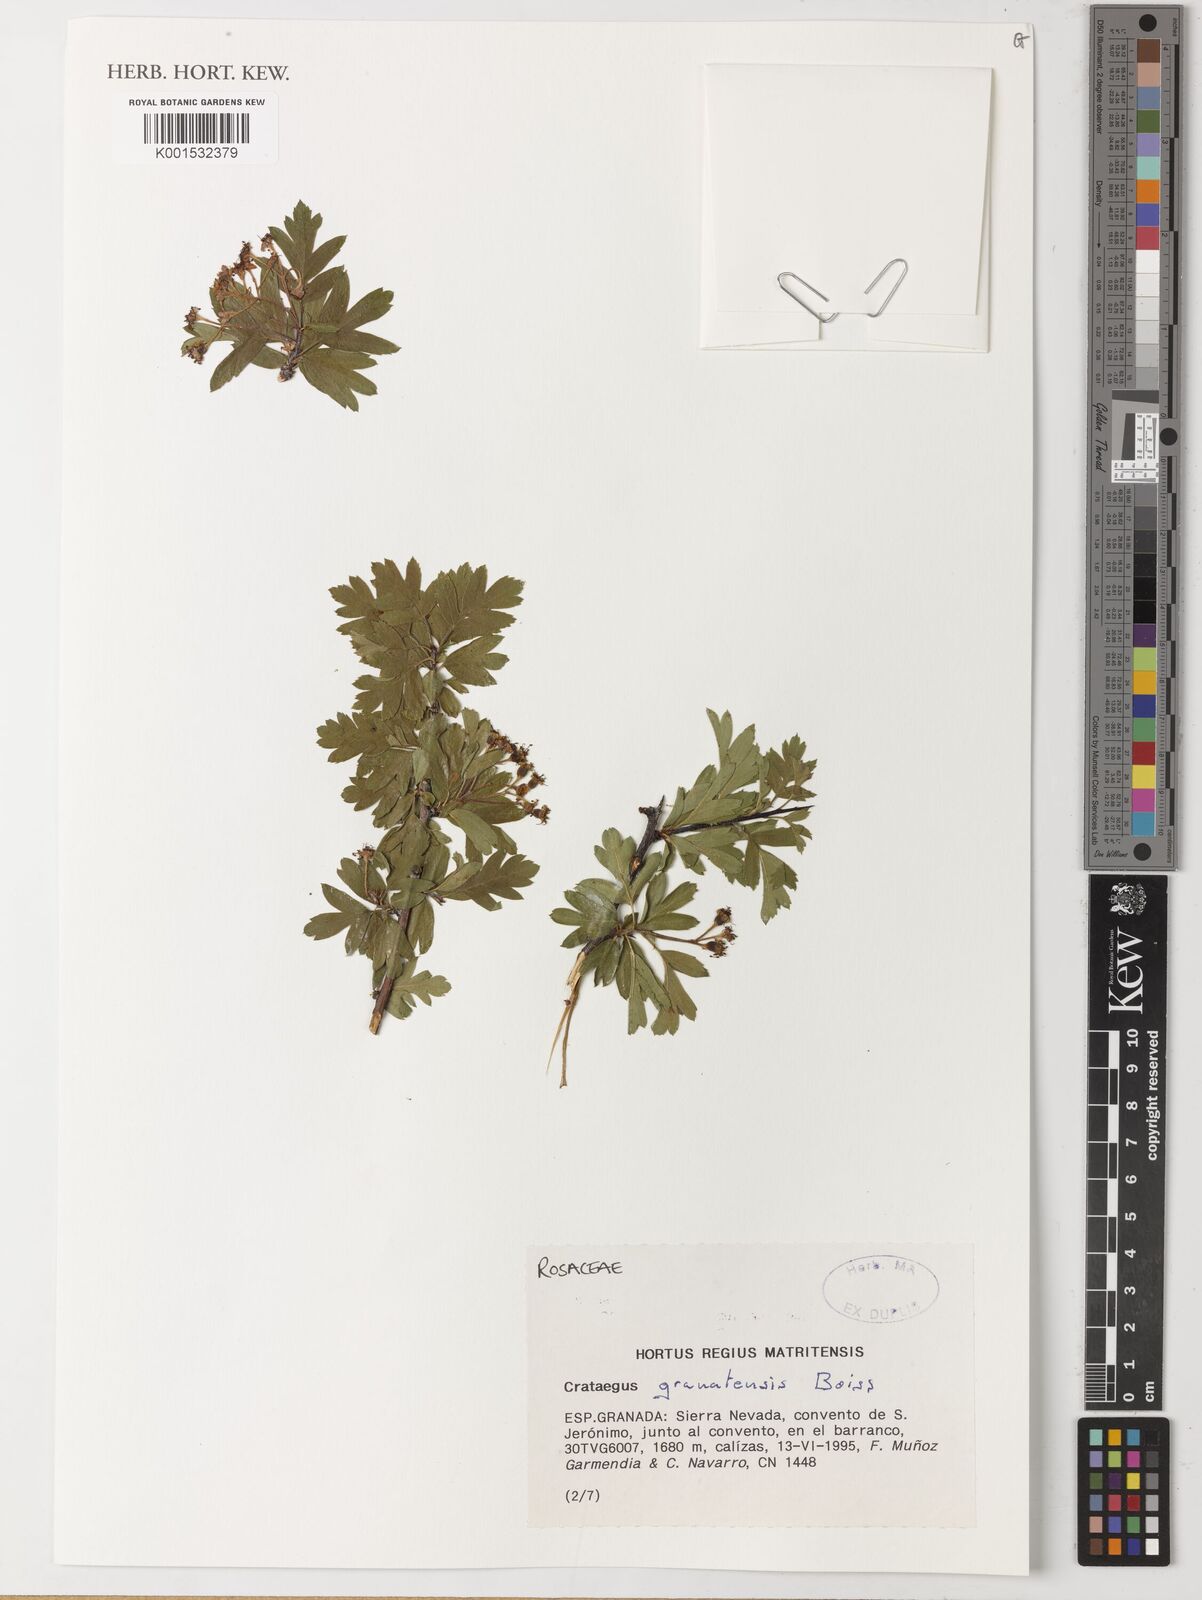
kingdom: Plantae
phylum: Tracheophyta
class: Magnoliopsida
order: Rosales
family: Rosaceae
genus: Crataegus
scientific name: Crataegus granatensis
